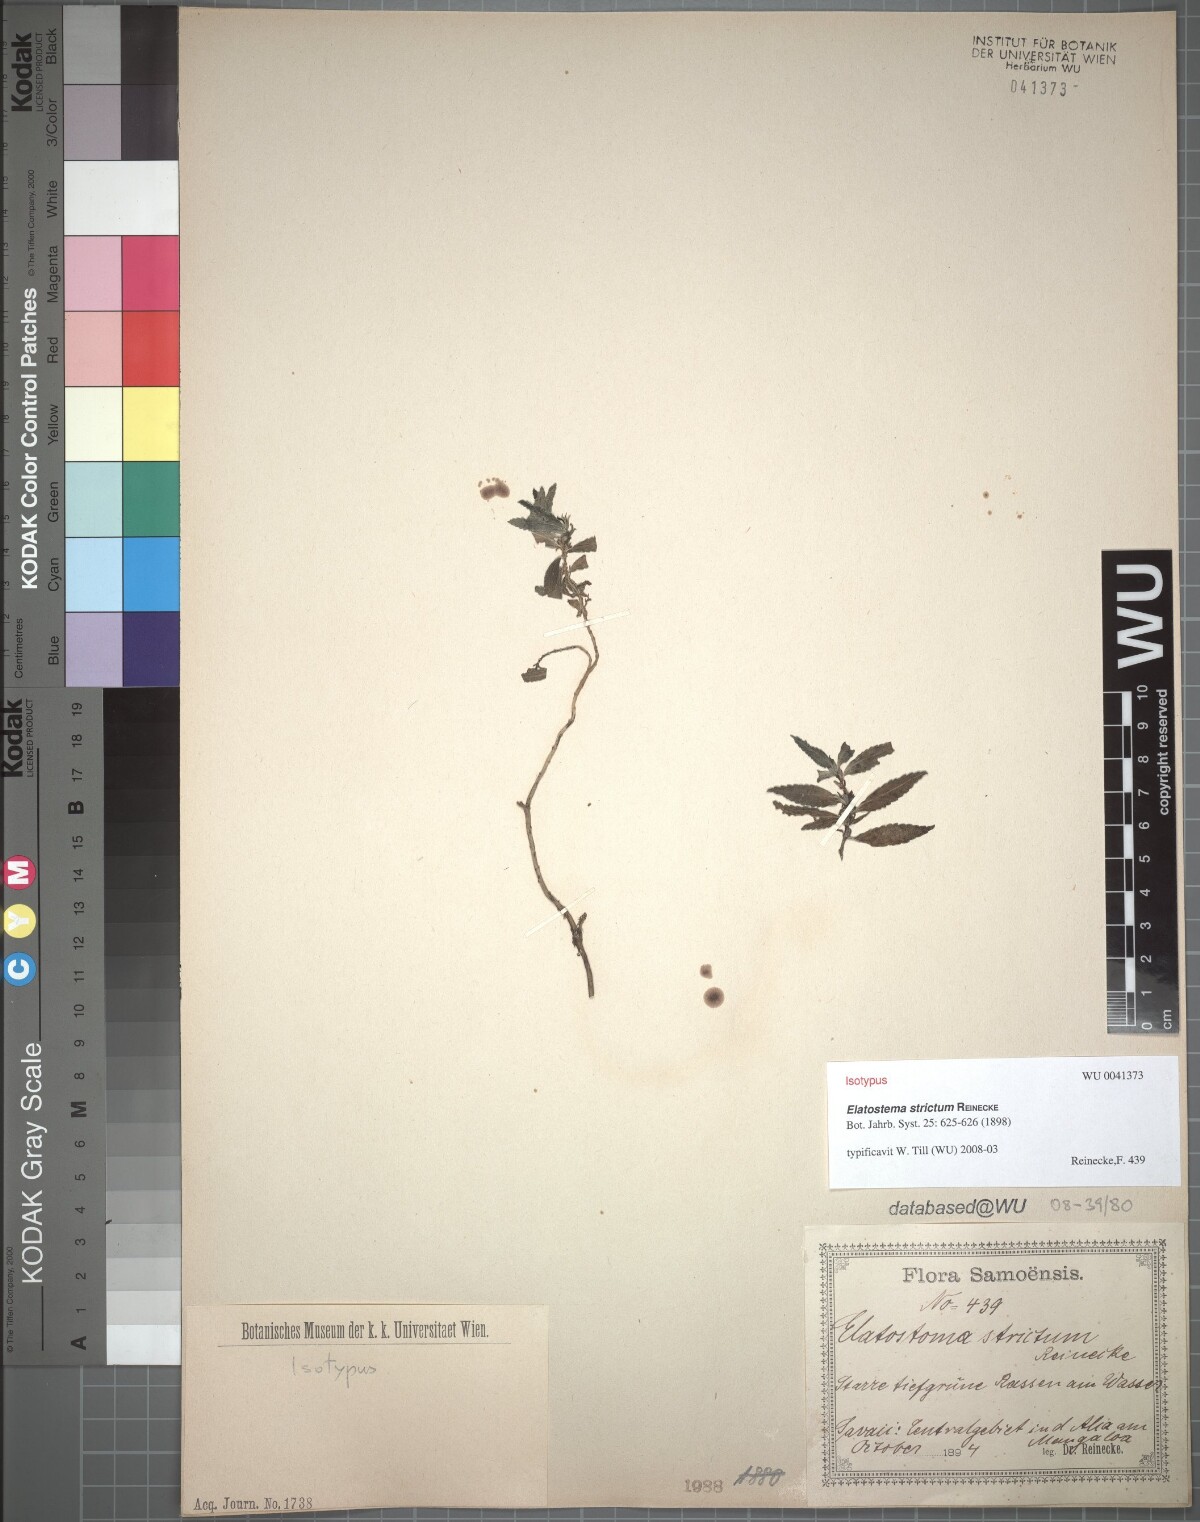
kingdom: Plantae
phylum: Tracheophyta
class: Magnoliopsida
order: Rosales
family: Urticaceae
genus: Elatostema
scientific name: Elatostema strictum
